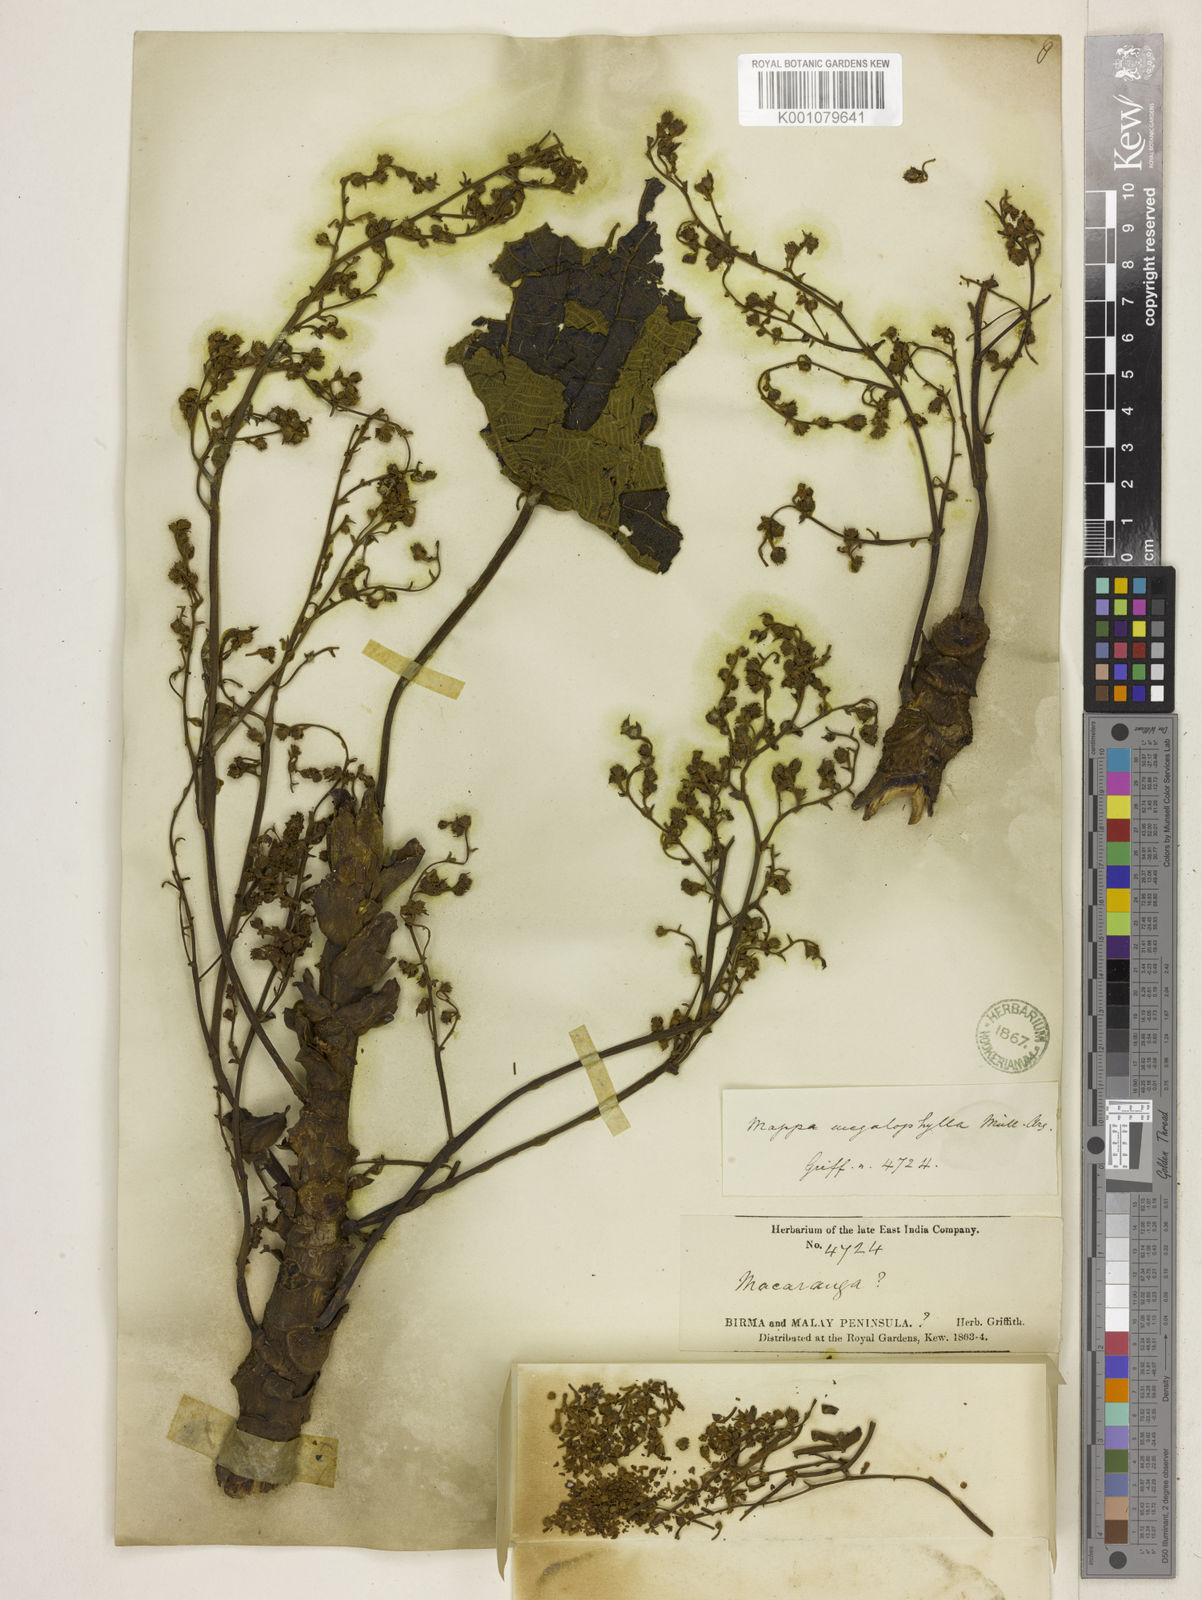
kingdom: Plantae
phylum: Tracheophyta
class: Magnoliopsida
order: Malpighiales
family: Euphorbiaceae
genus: Macaranga
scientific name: Macaranga
